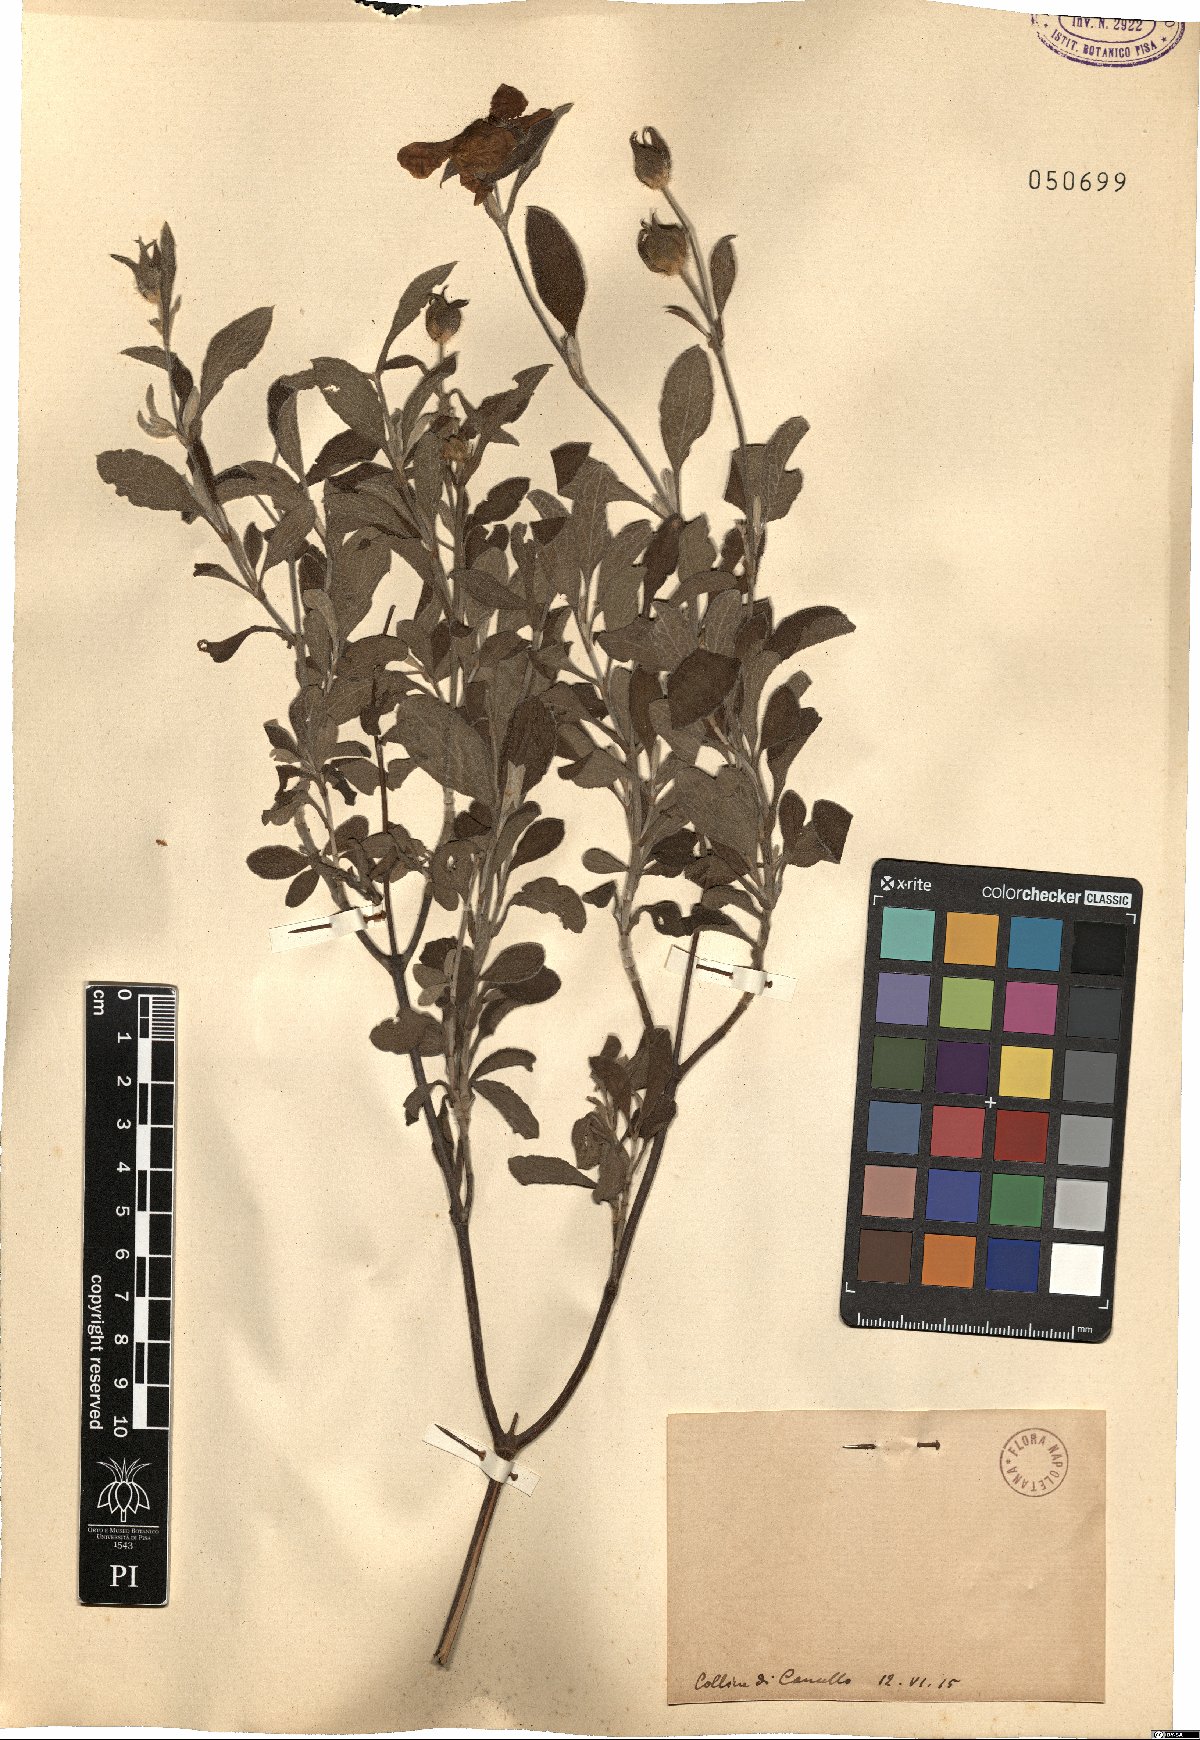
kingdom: Plantae
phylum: Tracheophyta
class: Magnoliopsida
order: Malvales
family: Cistaceae
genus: Cistus
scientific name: Cistus
